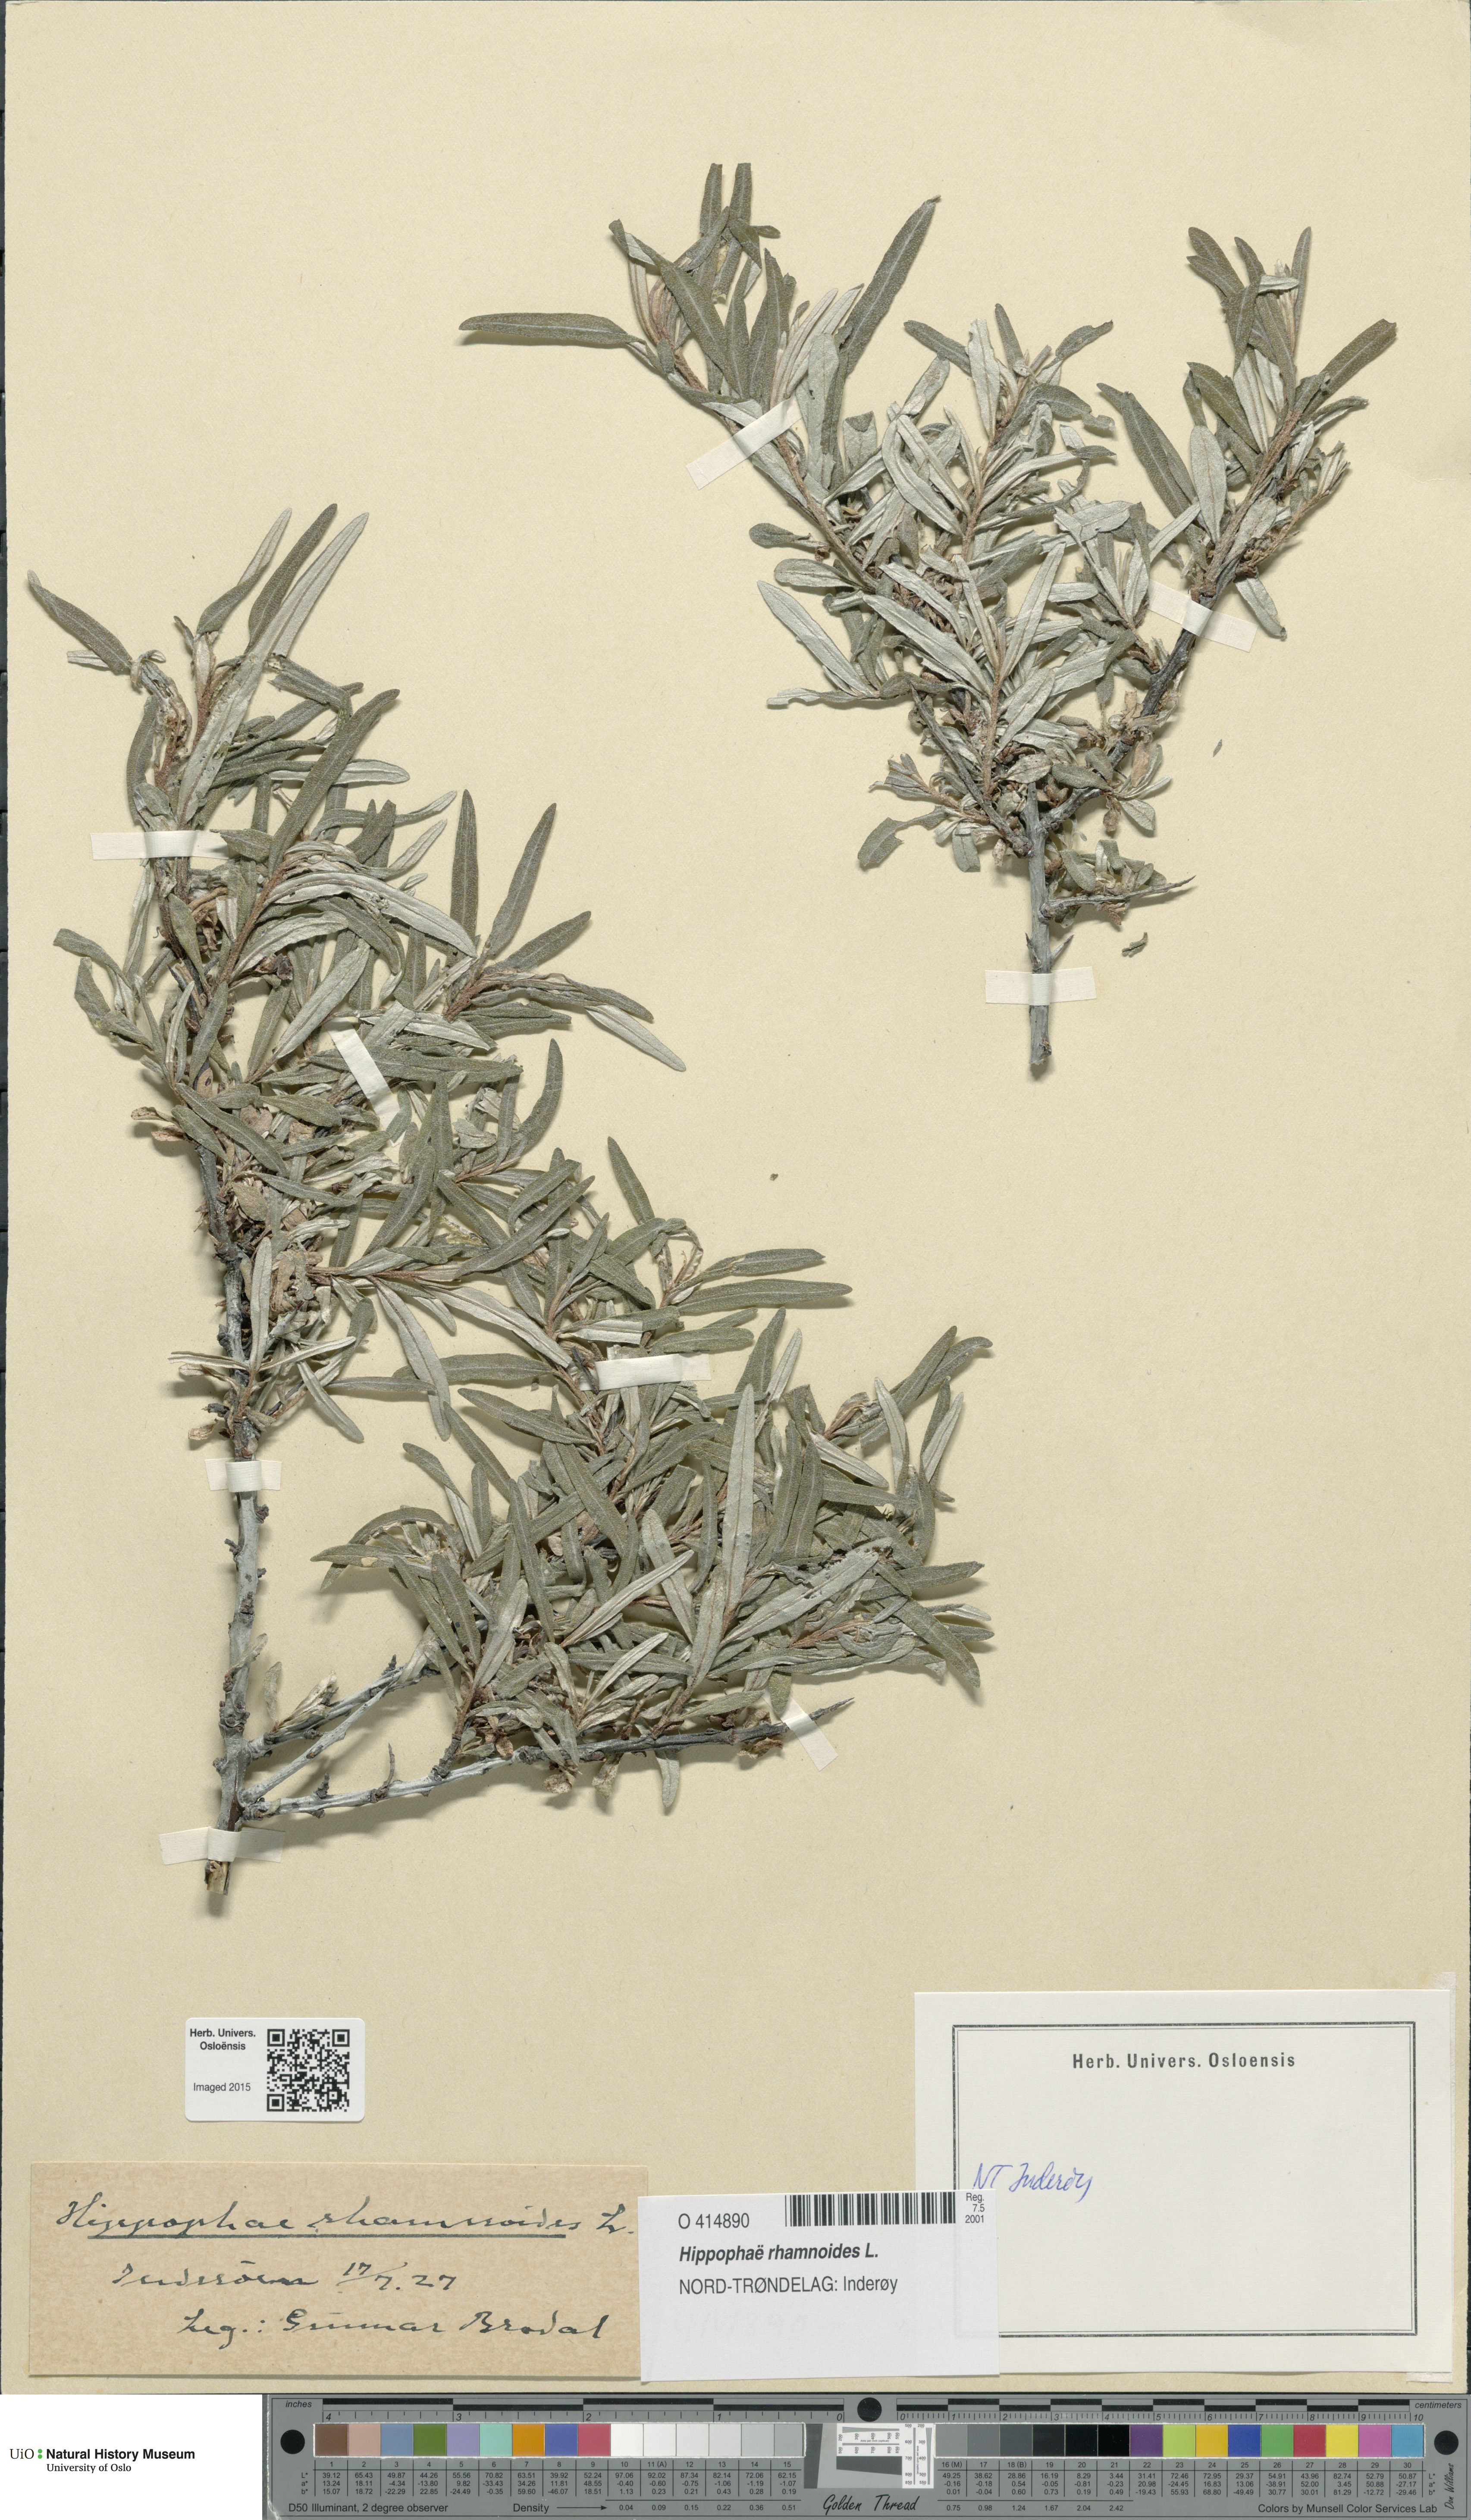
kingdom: Plantae
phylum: Tracheophyta
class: Magnoliopsida
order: Rosales
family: Elaeagnaceae
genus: Hippophae
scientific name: Hippophae rhamnoides
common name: Sea-buckthorn
